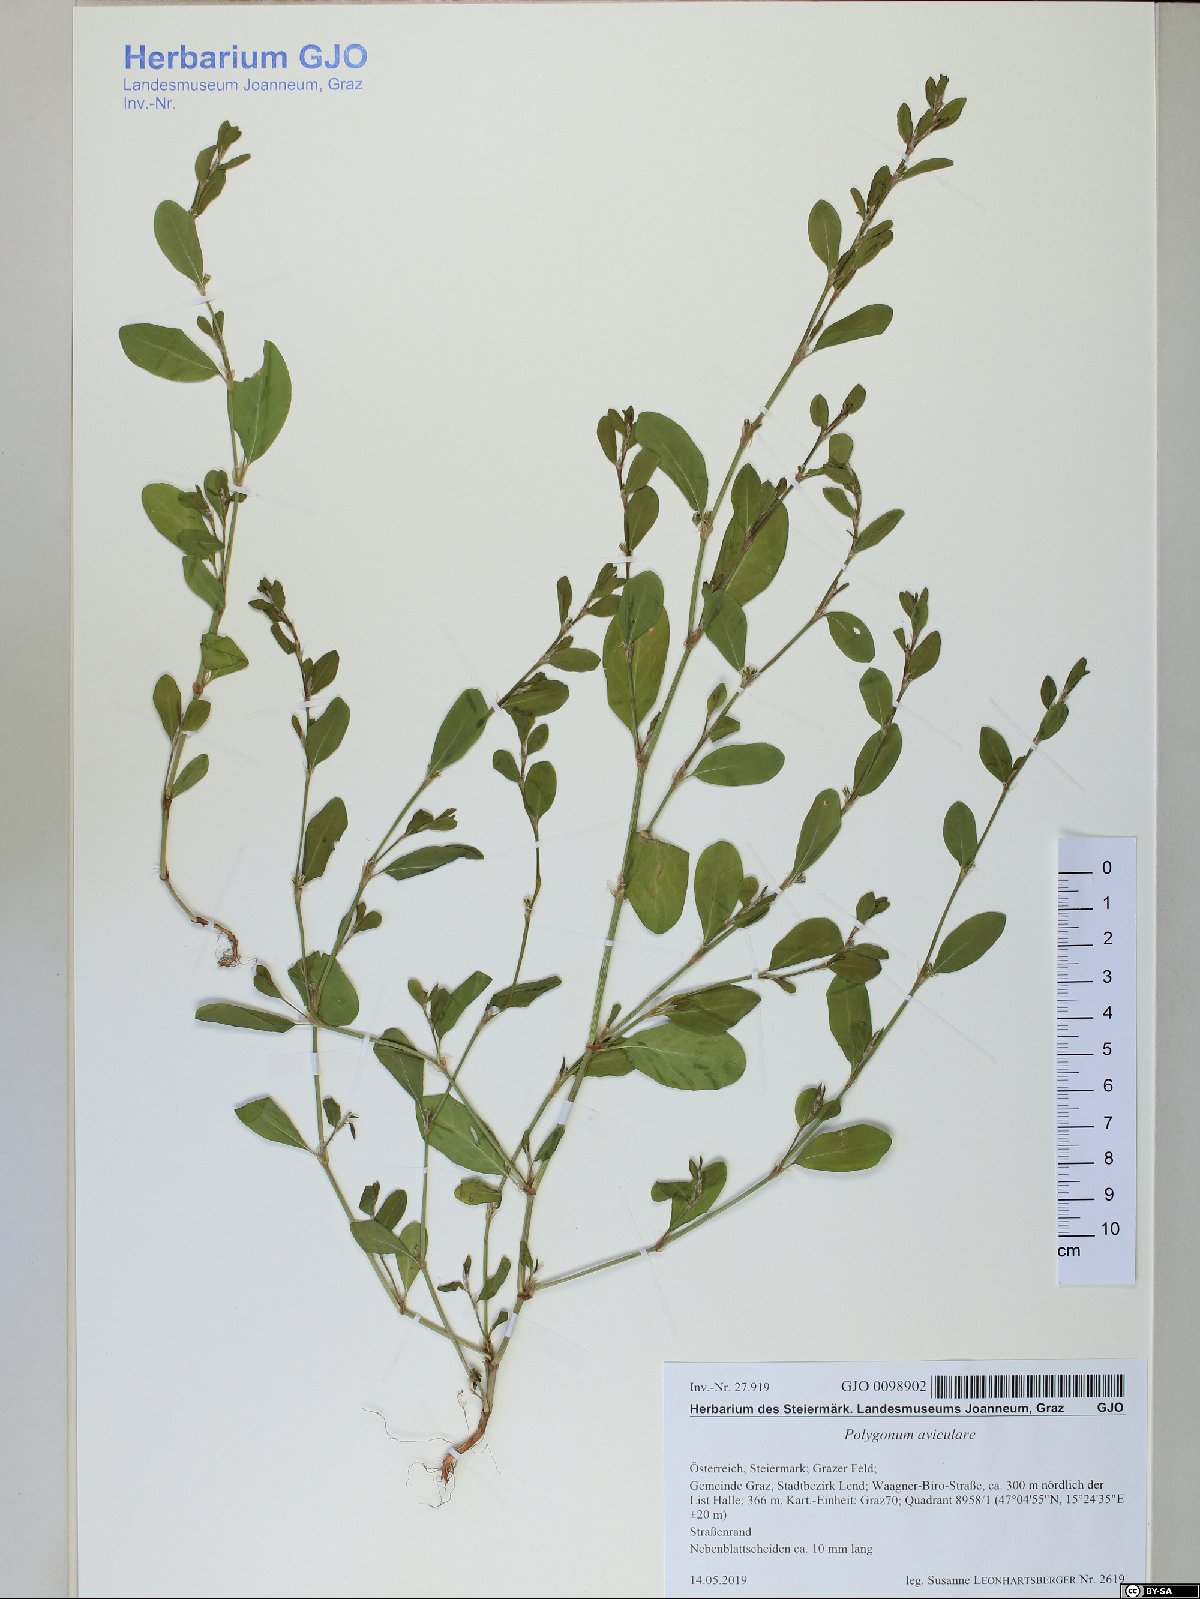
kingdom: Plantae
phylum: Tracheophyta
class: Magnoliopsida
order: Caryophyllales
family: Polygonaceae
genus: Polygonum
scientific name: Polygonum aviculare
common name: Prostrate knotweed
